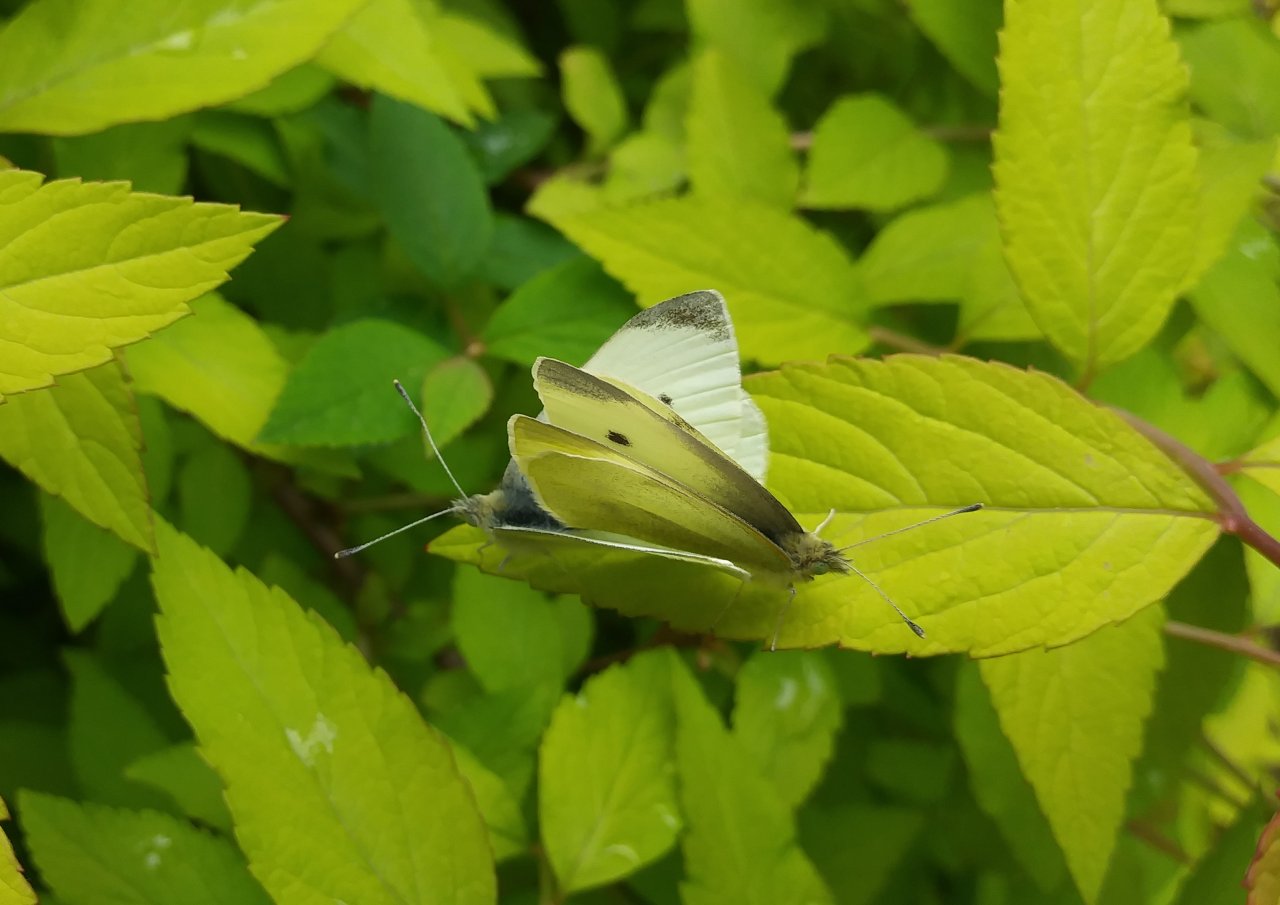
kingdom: Animalia
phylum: Arthropoda
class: Insecta
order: Lepidoptera
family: Pieridae
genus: Pieris
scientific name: Pieris rapae
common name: Cabbage White
